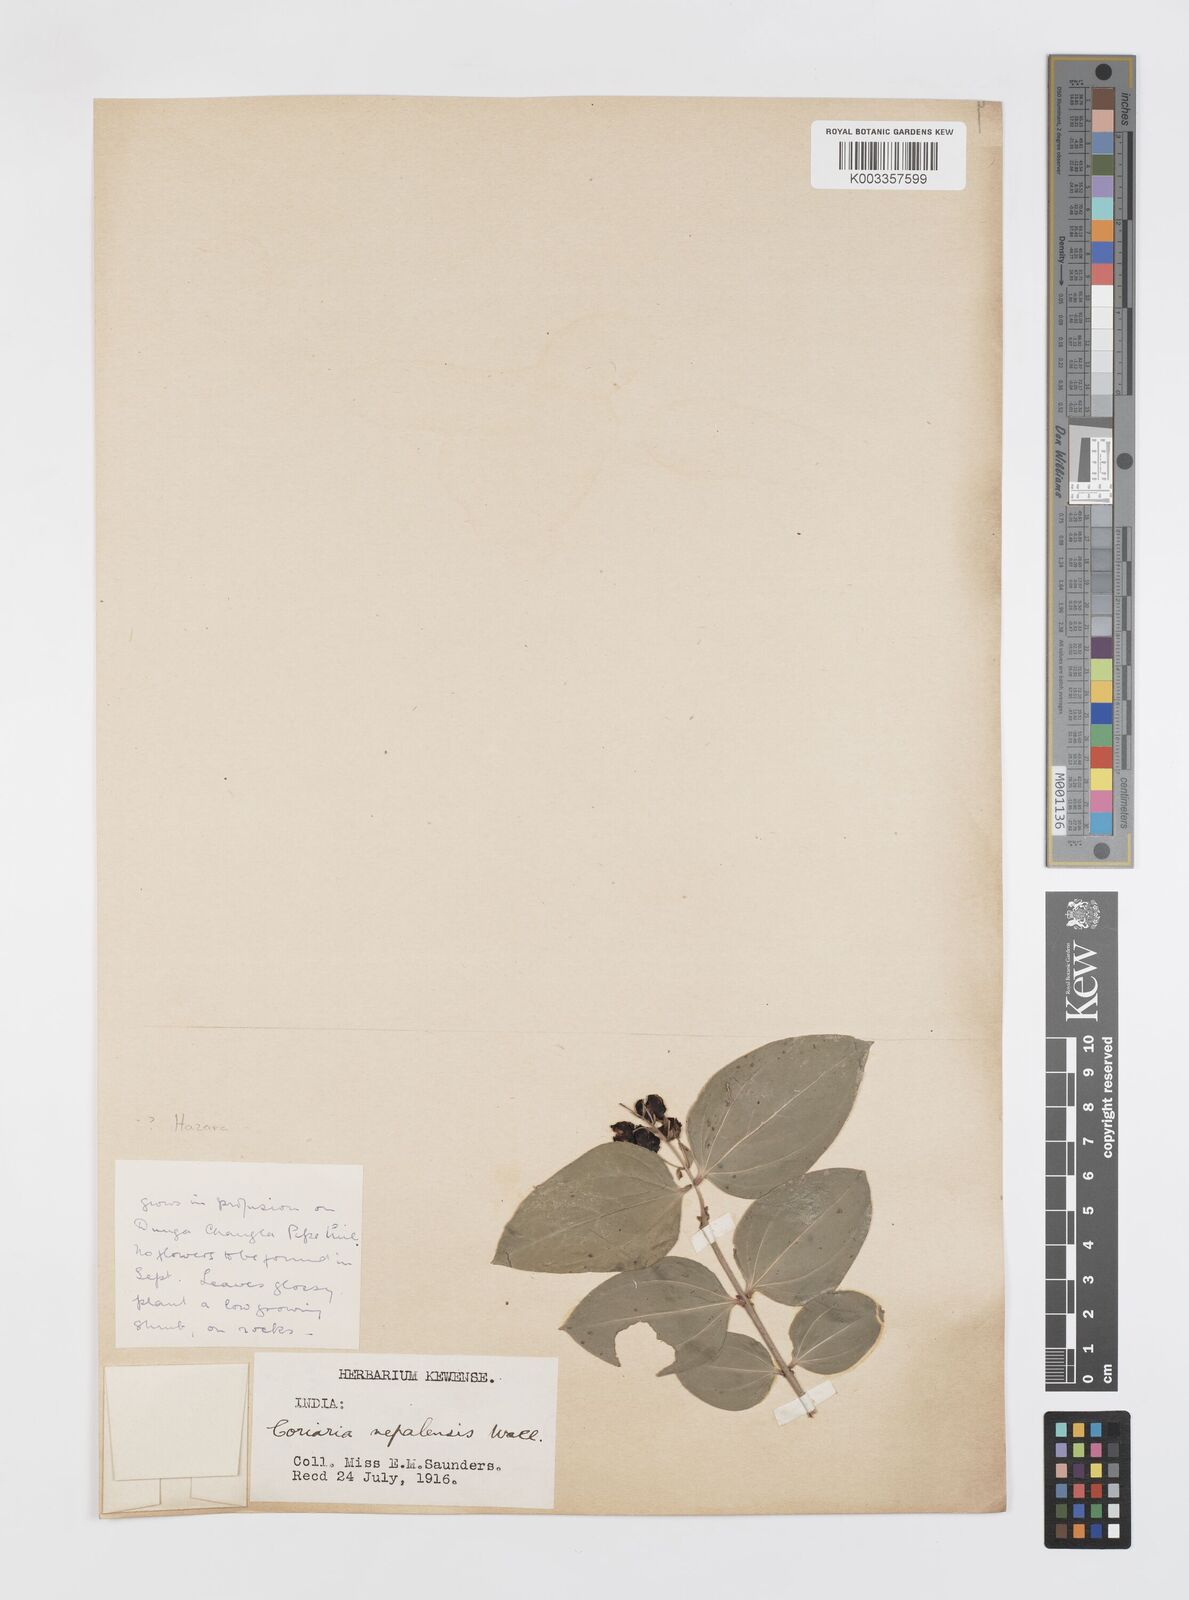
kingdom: Plantae
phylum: Tracheophyta
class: Magnoliopsida
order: Cucurbitales
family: Coriariaceae
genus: Coriaria
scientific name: Coriaria napalensis
